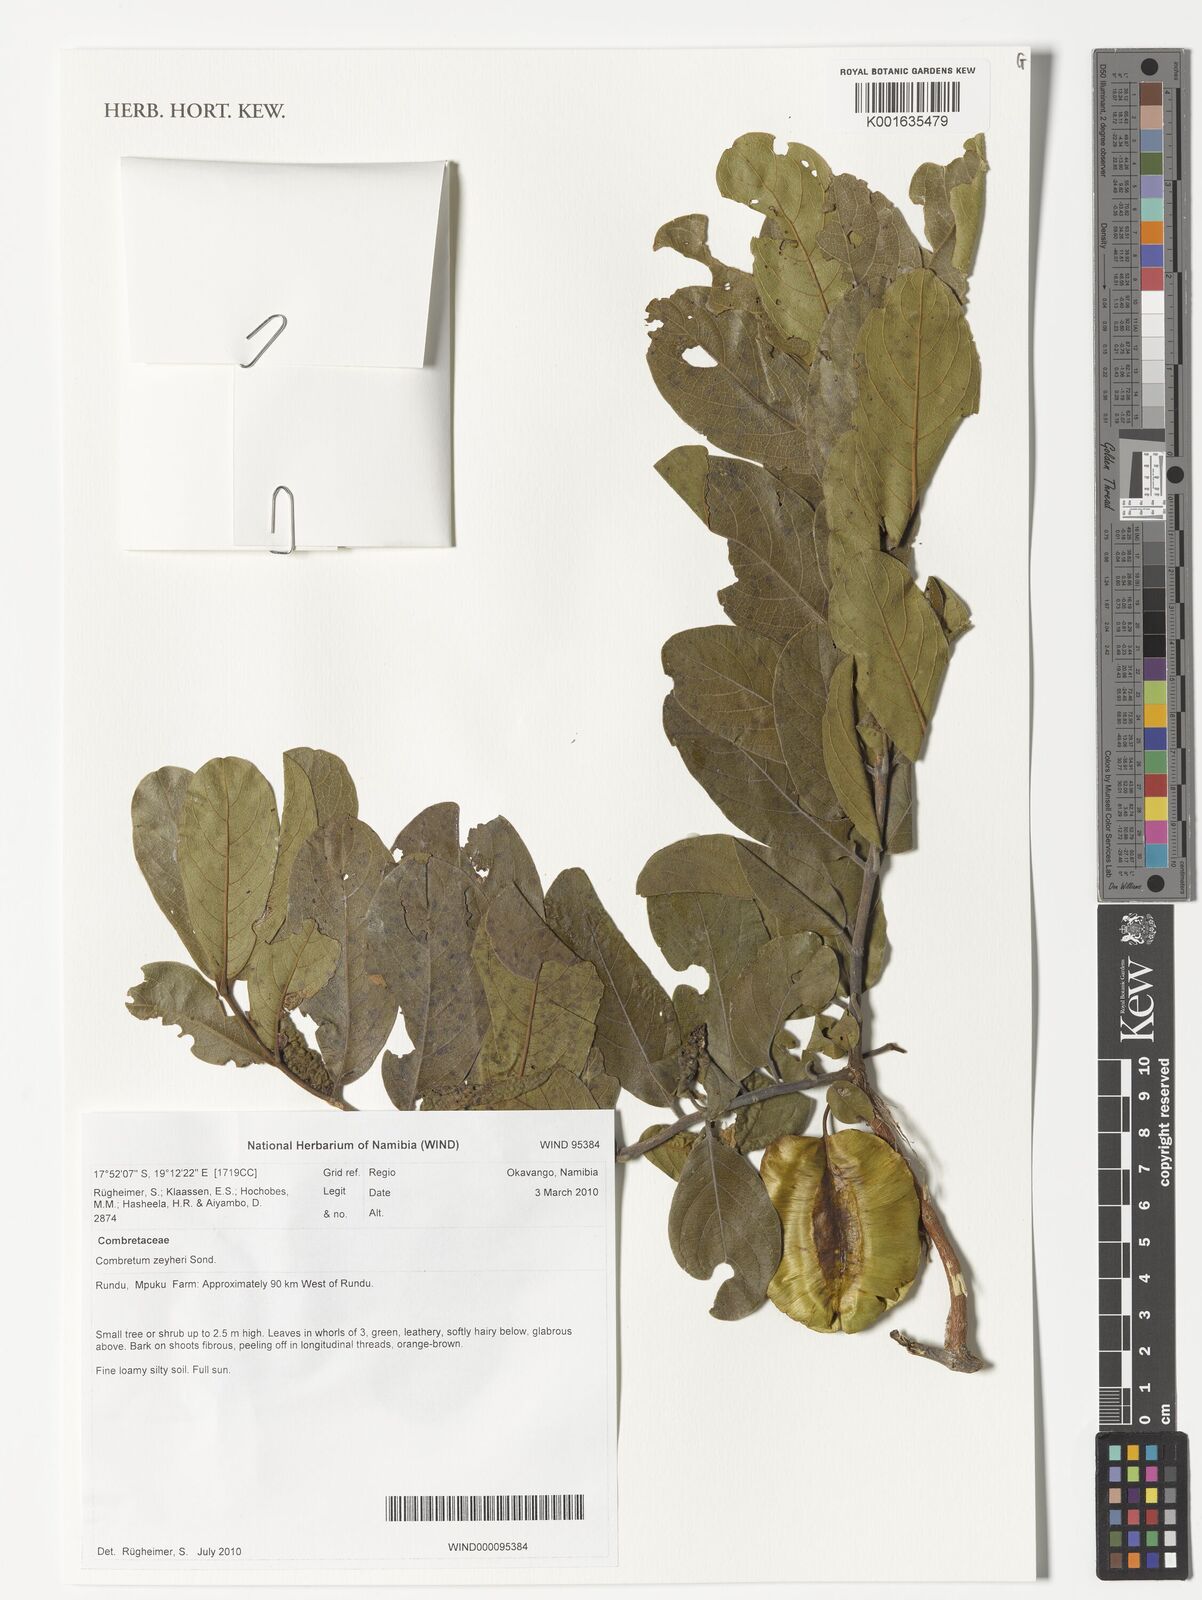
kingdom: Plantae
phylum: Tracheophyta
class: Magnoliopsida
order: Myrtales
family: Combretaceae
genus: Combretum
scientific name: Combretum zeyheri
